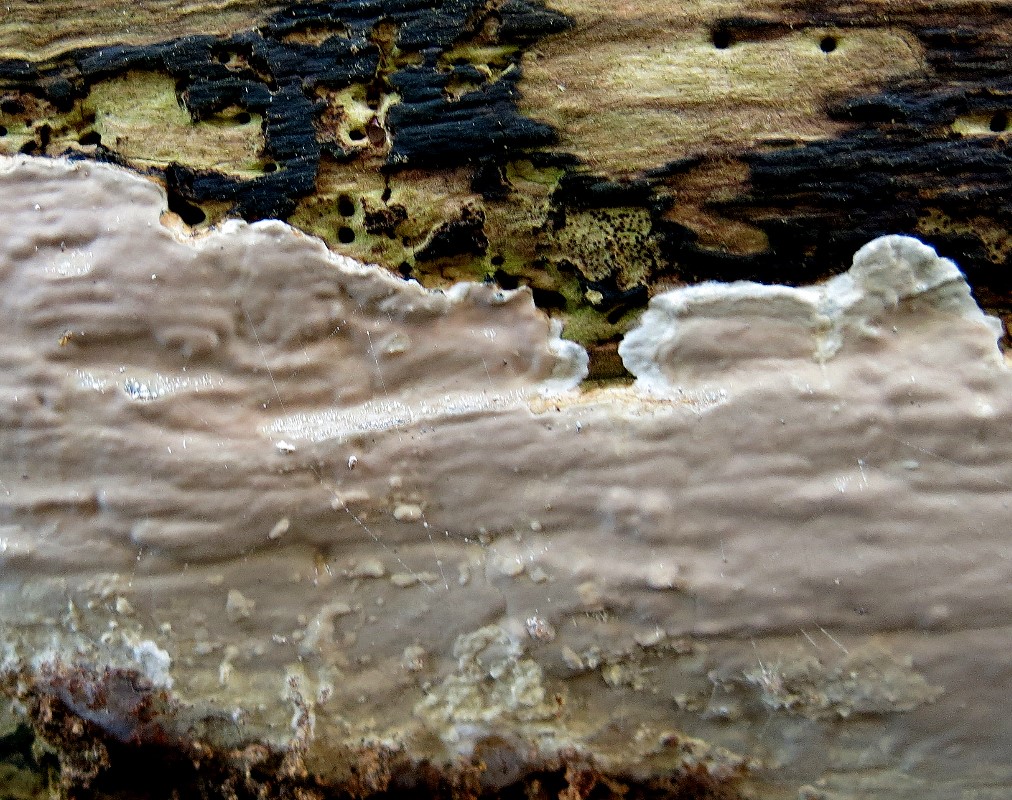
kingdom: Fungi
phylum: Basidiomycota
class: Agaricomycetes
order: Russulales
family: Peniophoraceae
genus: Scytinostroma
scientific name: Scytinostroma hemidichophyticum
